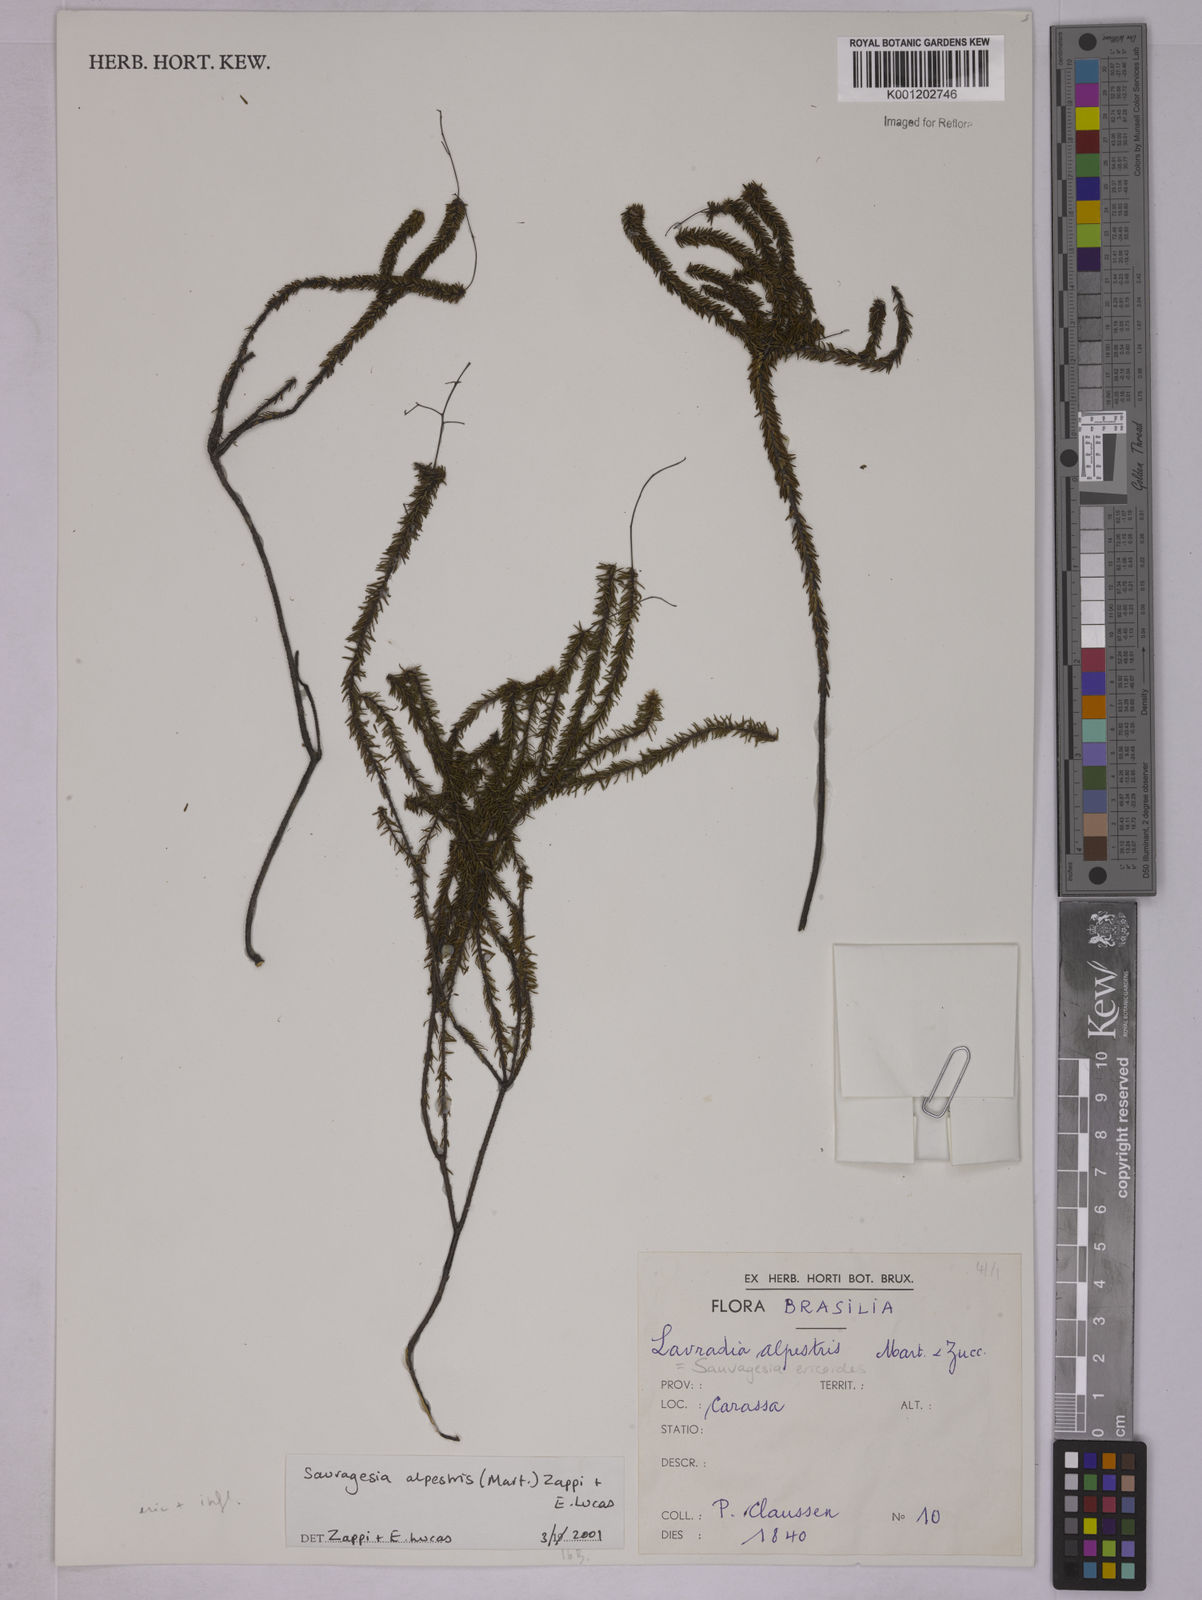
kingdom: Plantae
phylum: Tracheophyta
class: Magnoliopsida
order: Malpighiales
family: Ochnaceae
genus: Sauvagesia
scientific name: Sauvagesia alpestris
